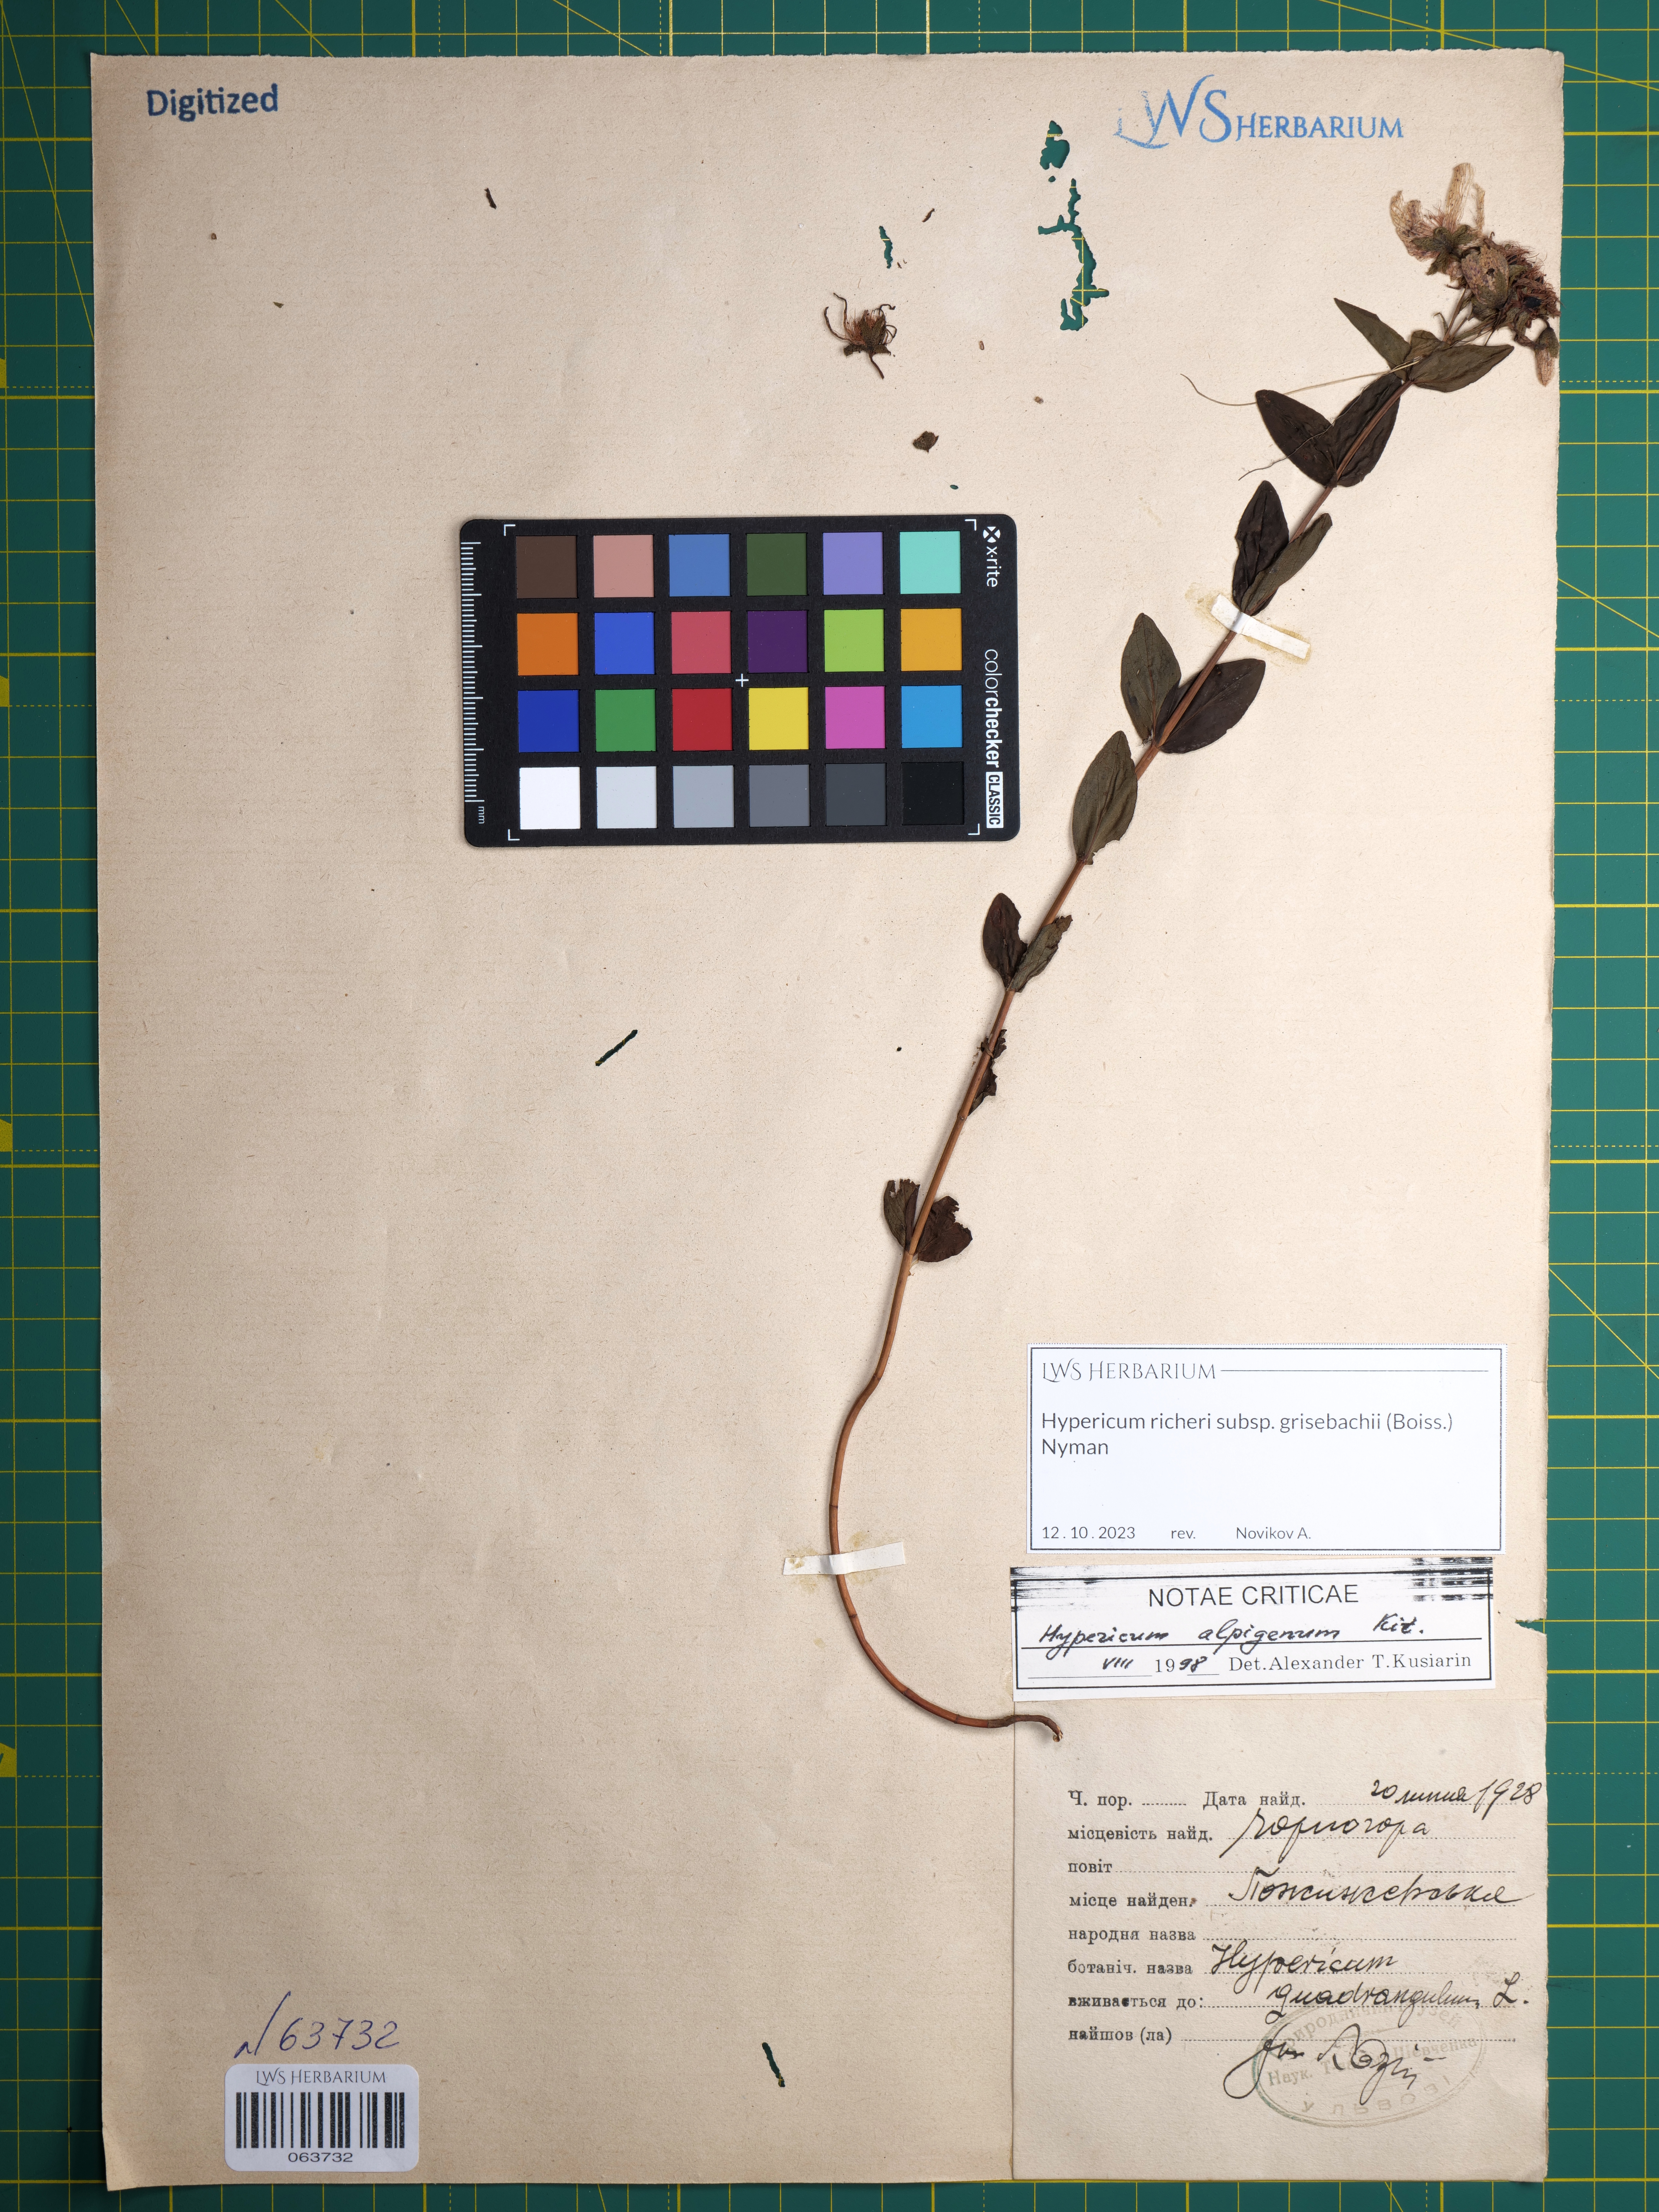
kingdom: Plantae
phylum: Tracheophyta
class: Magnoliopsida
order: Malpighiales
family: Hypericaceae
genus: Hypericum
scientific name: Hypericum richeri
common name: Alpine st john's-wort
